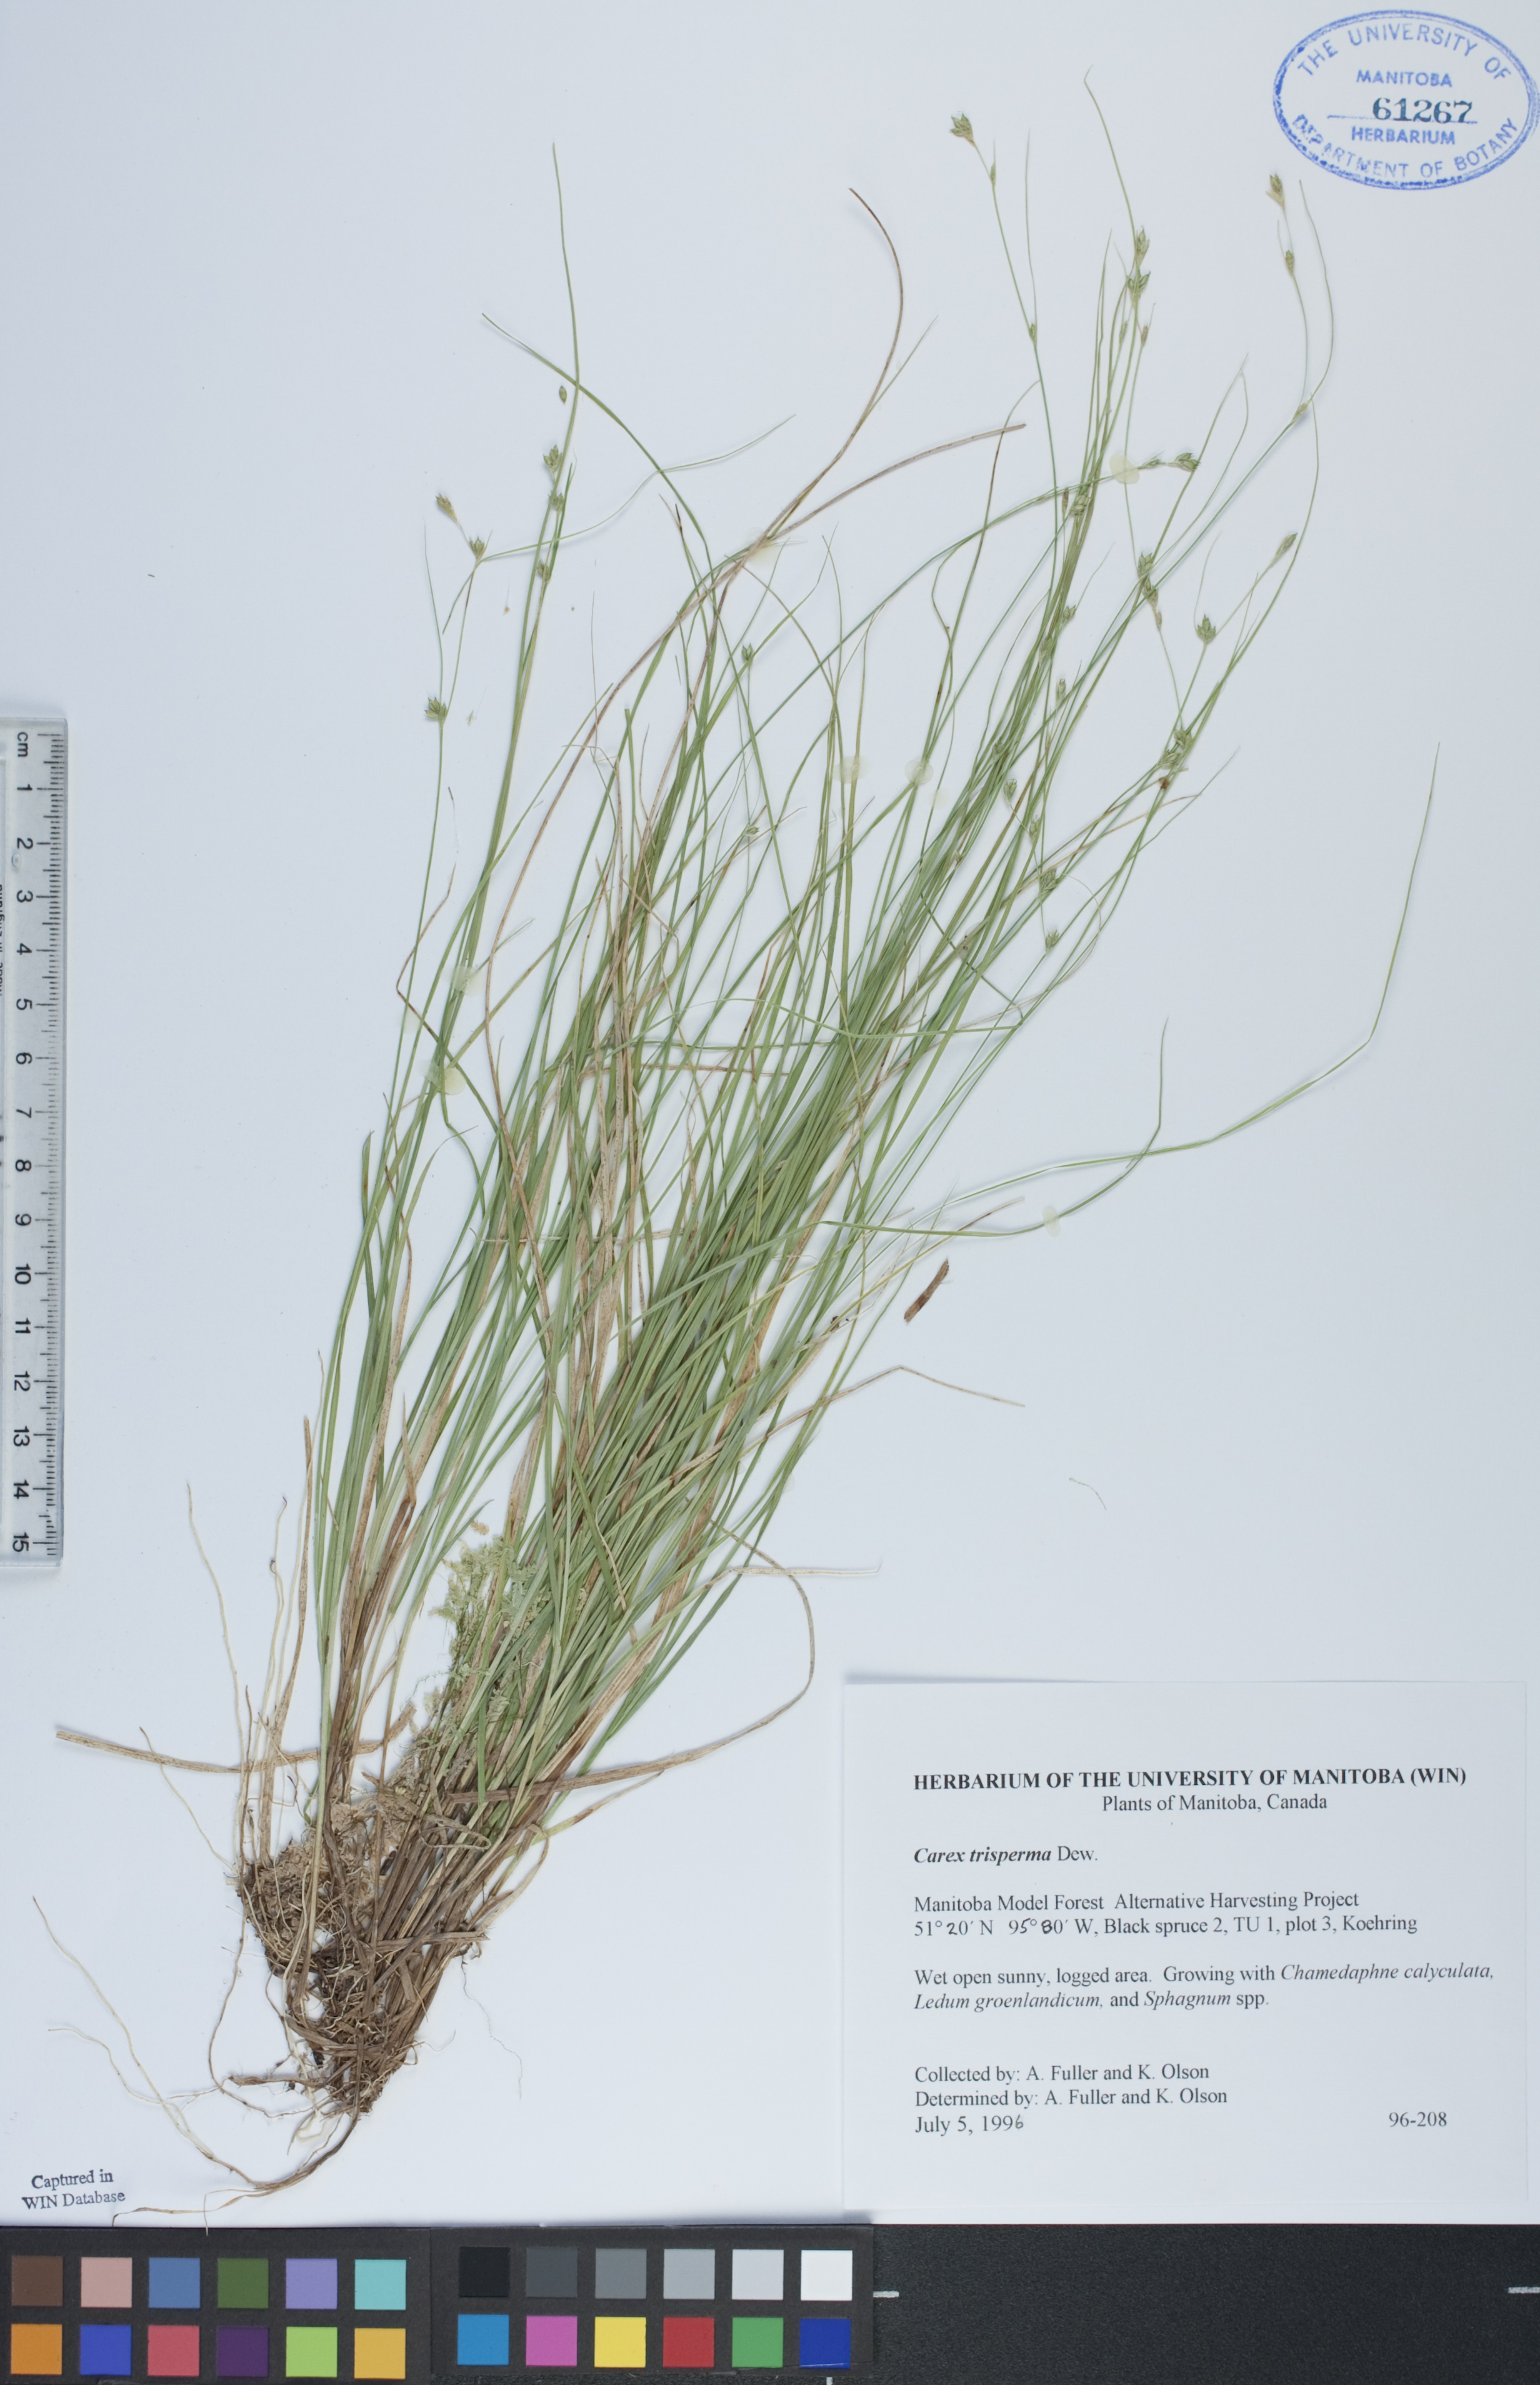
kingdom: Plantae
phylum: Tracheophyta
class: Liliopsida
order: Poales
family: Cyperaceae
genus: Carex
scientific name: Carex trisperma
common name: Three-seeded sedge
